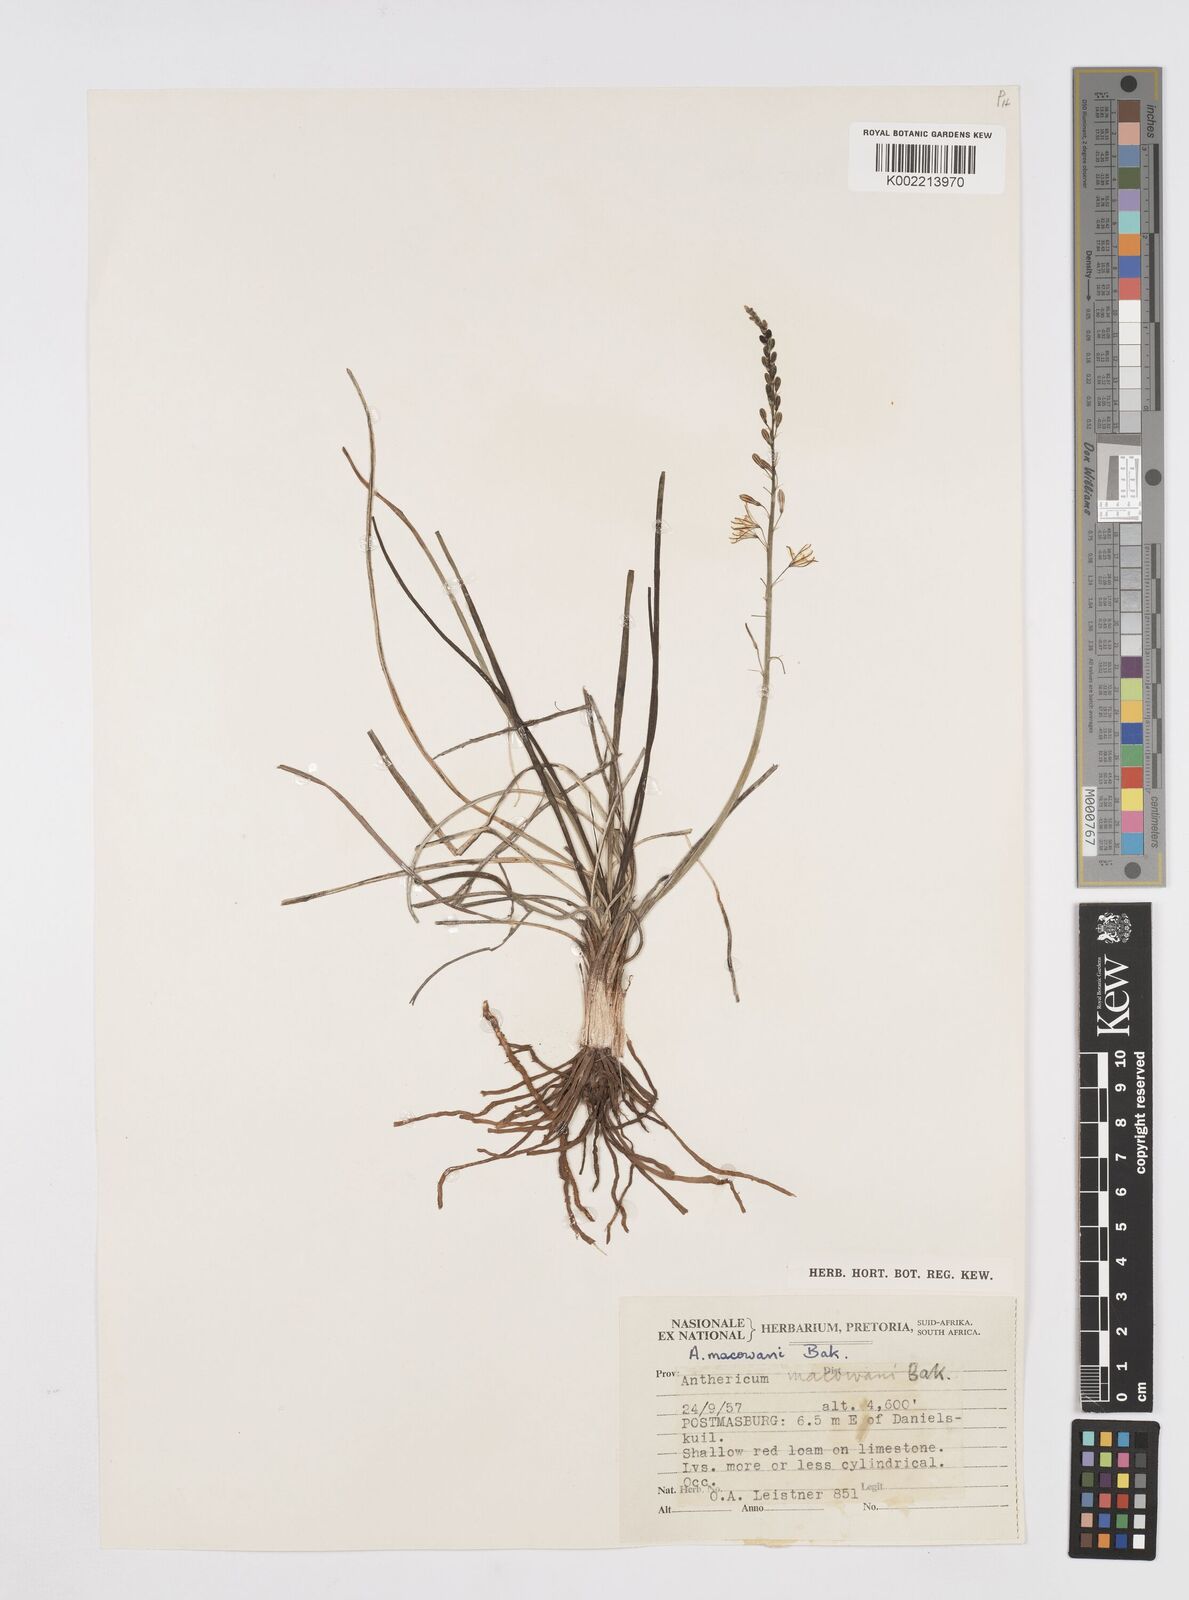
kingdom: Plantae
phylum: Tracheophyta
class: Liliopsida
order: Asparagales
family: Asphodelaceae
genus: Trachyandra
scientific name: Trachyandra asperata
